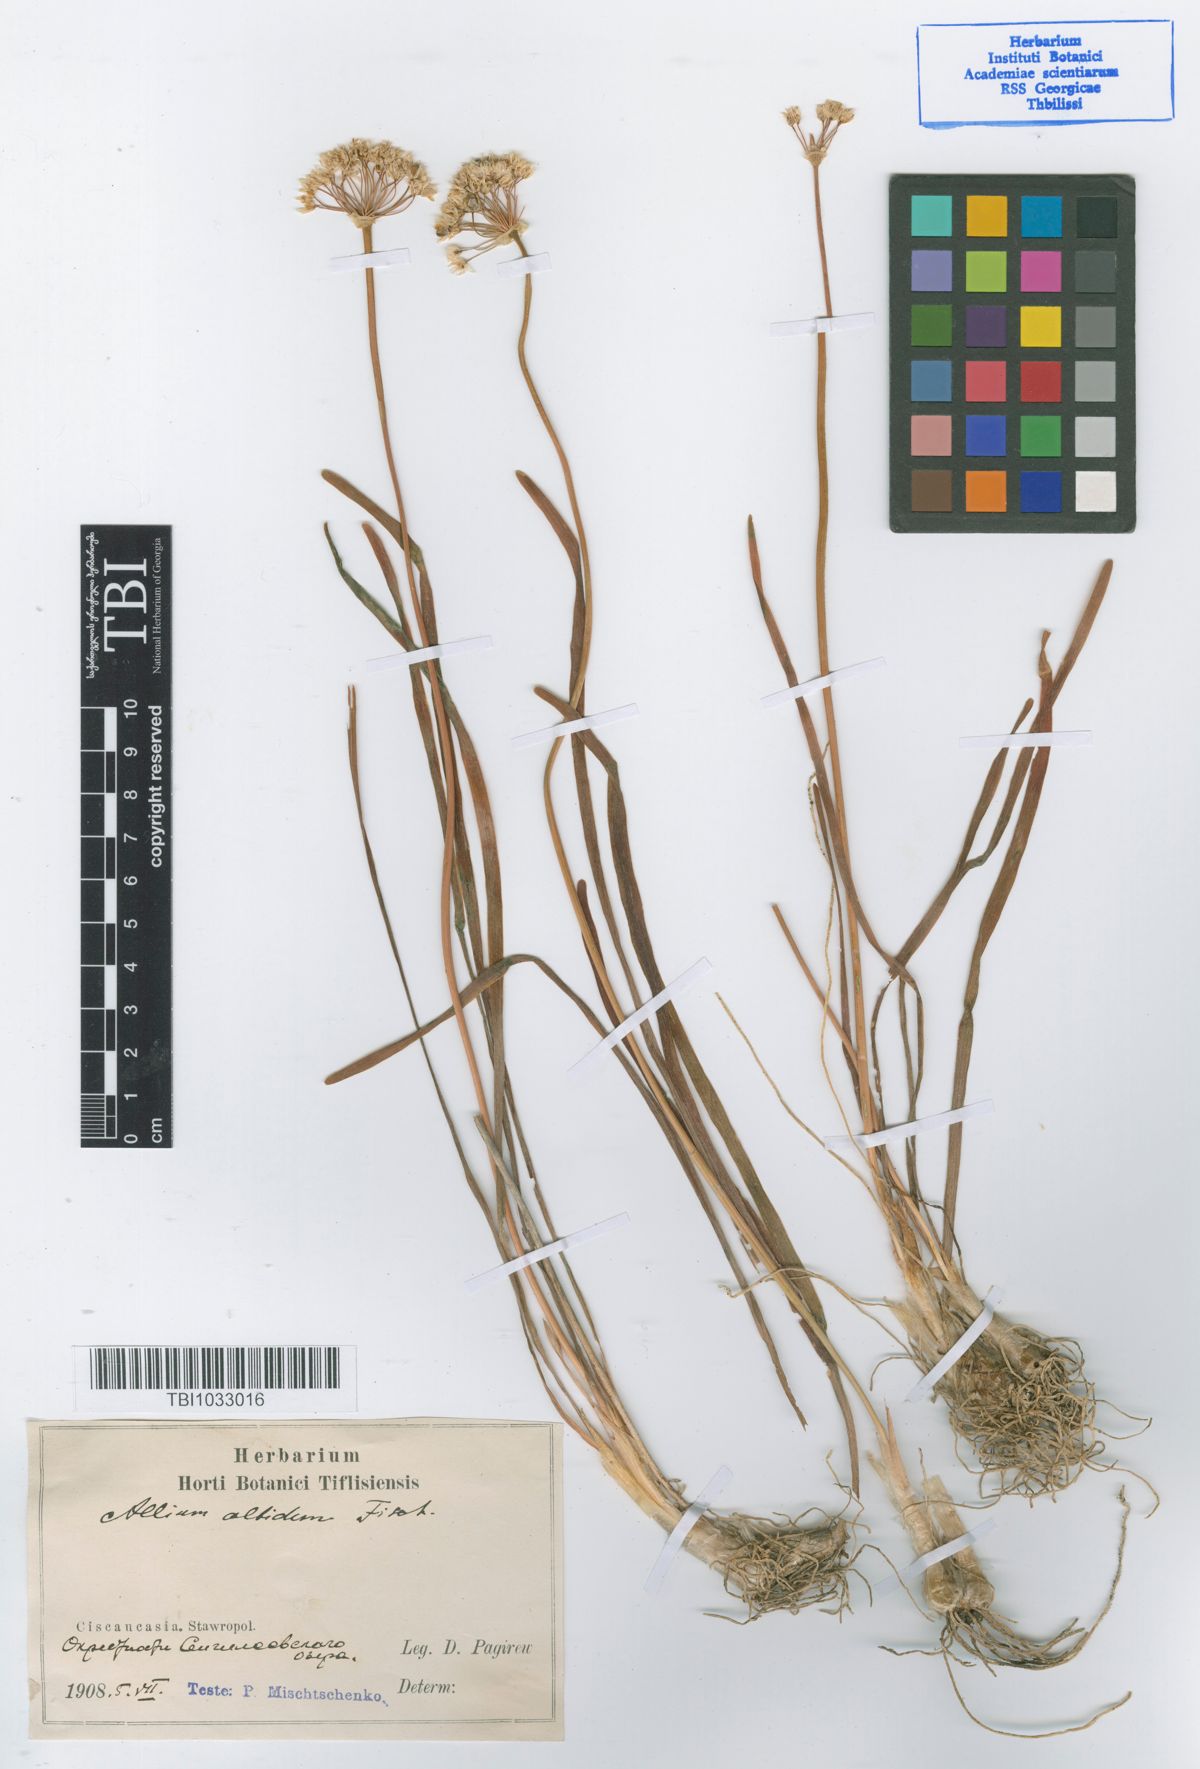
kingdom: Plantae
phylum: Tracheophyta
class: Liliopsida
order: Asparagales
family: Amaryllidaceae
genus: Allium
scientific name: Allium denudatum
